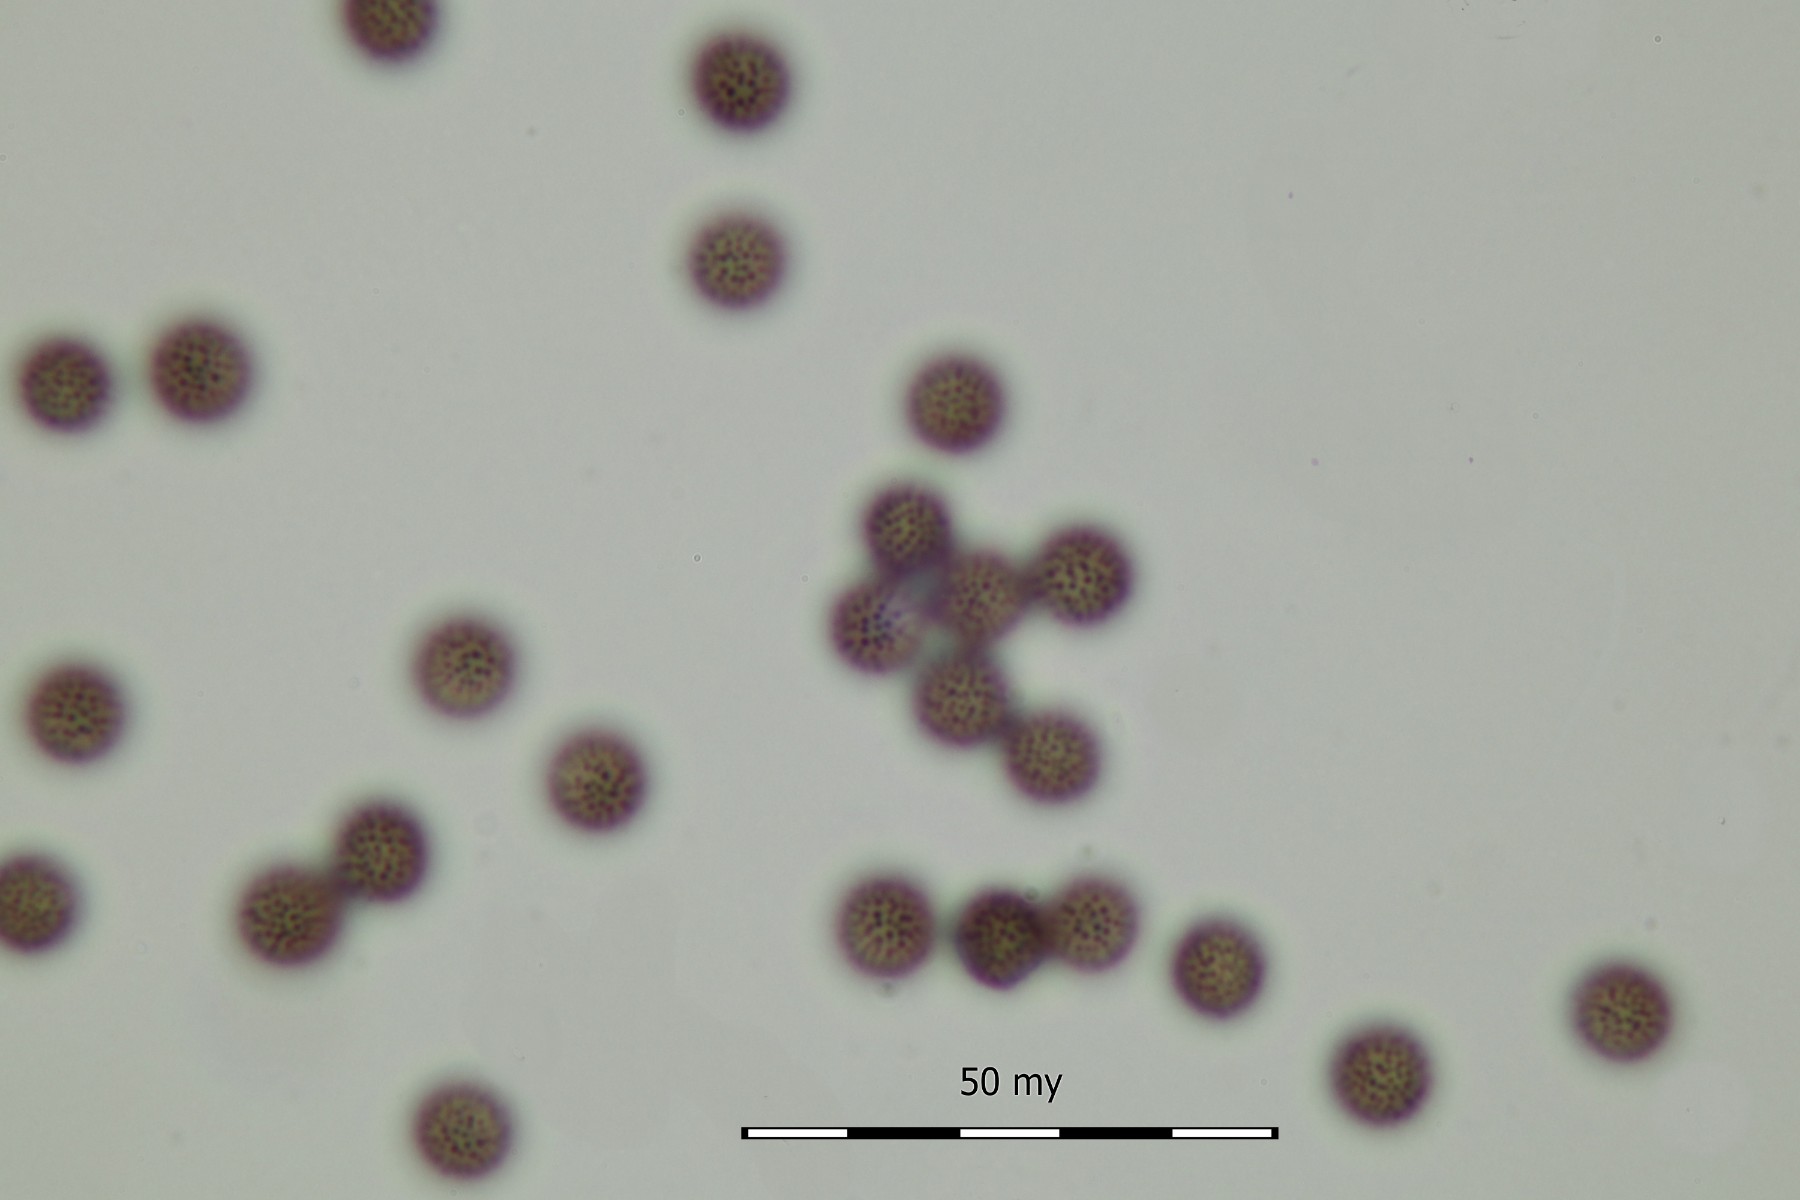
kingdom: Protozoa
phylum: Mycetozoa
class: Myxomycetes
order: Physarales
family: Didymiaceae
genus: Diderma
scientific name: Diderma spumarioides
